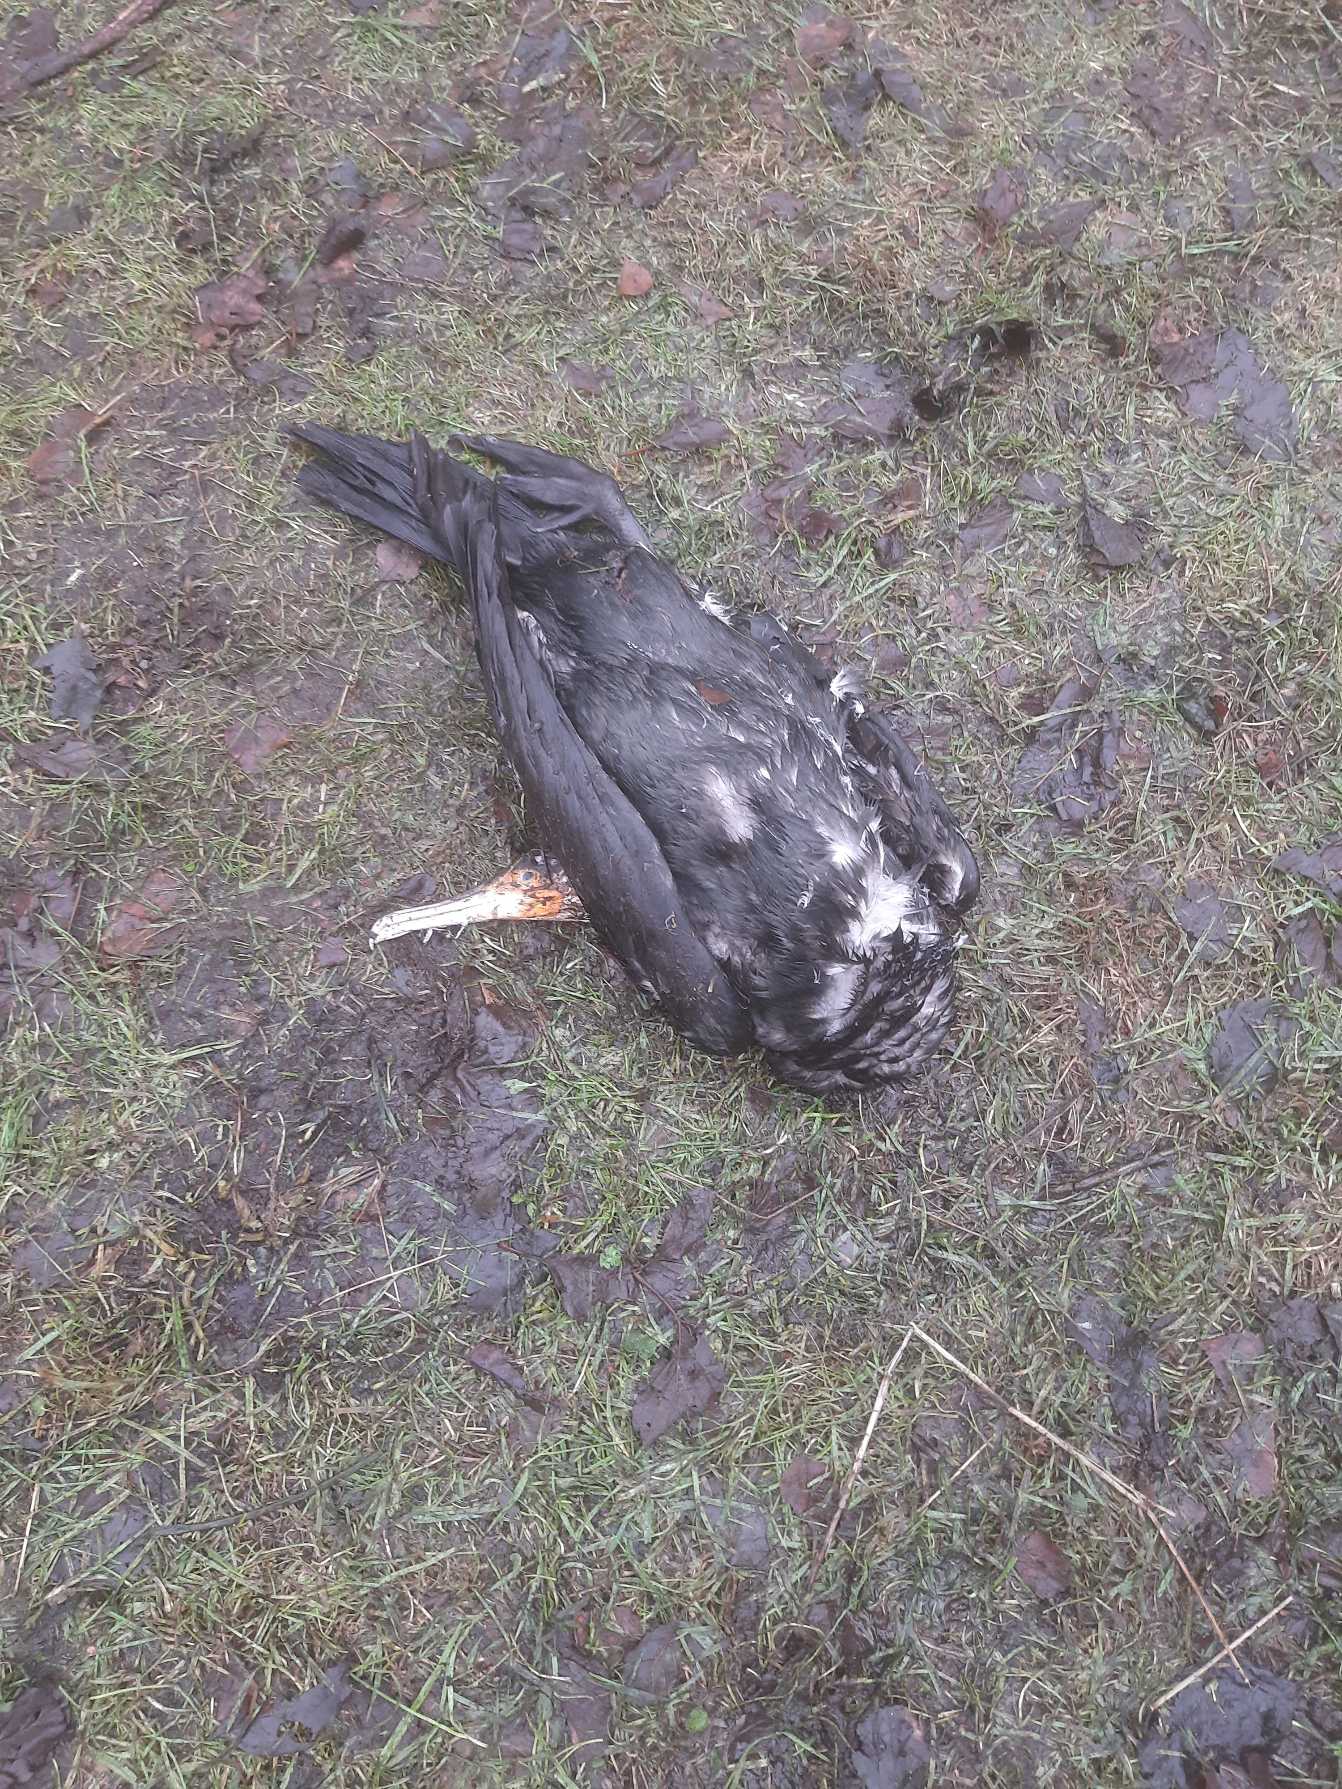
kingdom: Animalia
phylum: Chordata
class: Aves
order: Suliformes
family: Phalacrocoracidae
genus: Phalacrocorax
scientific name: Phalacrocorax carbo
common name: Skarv
